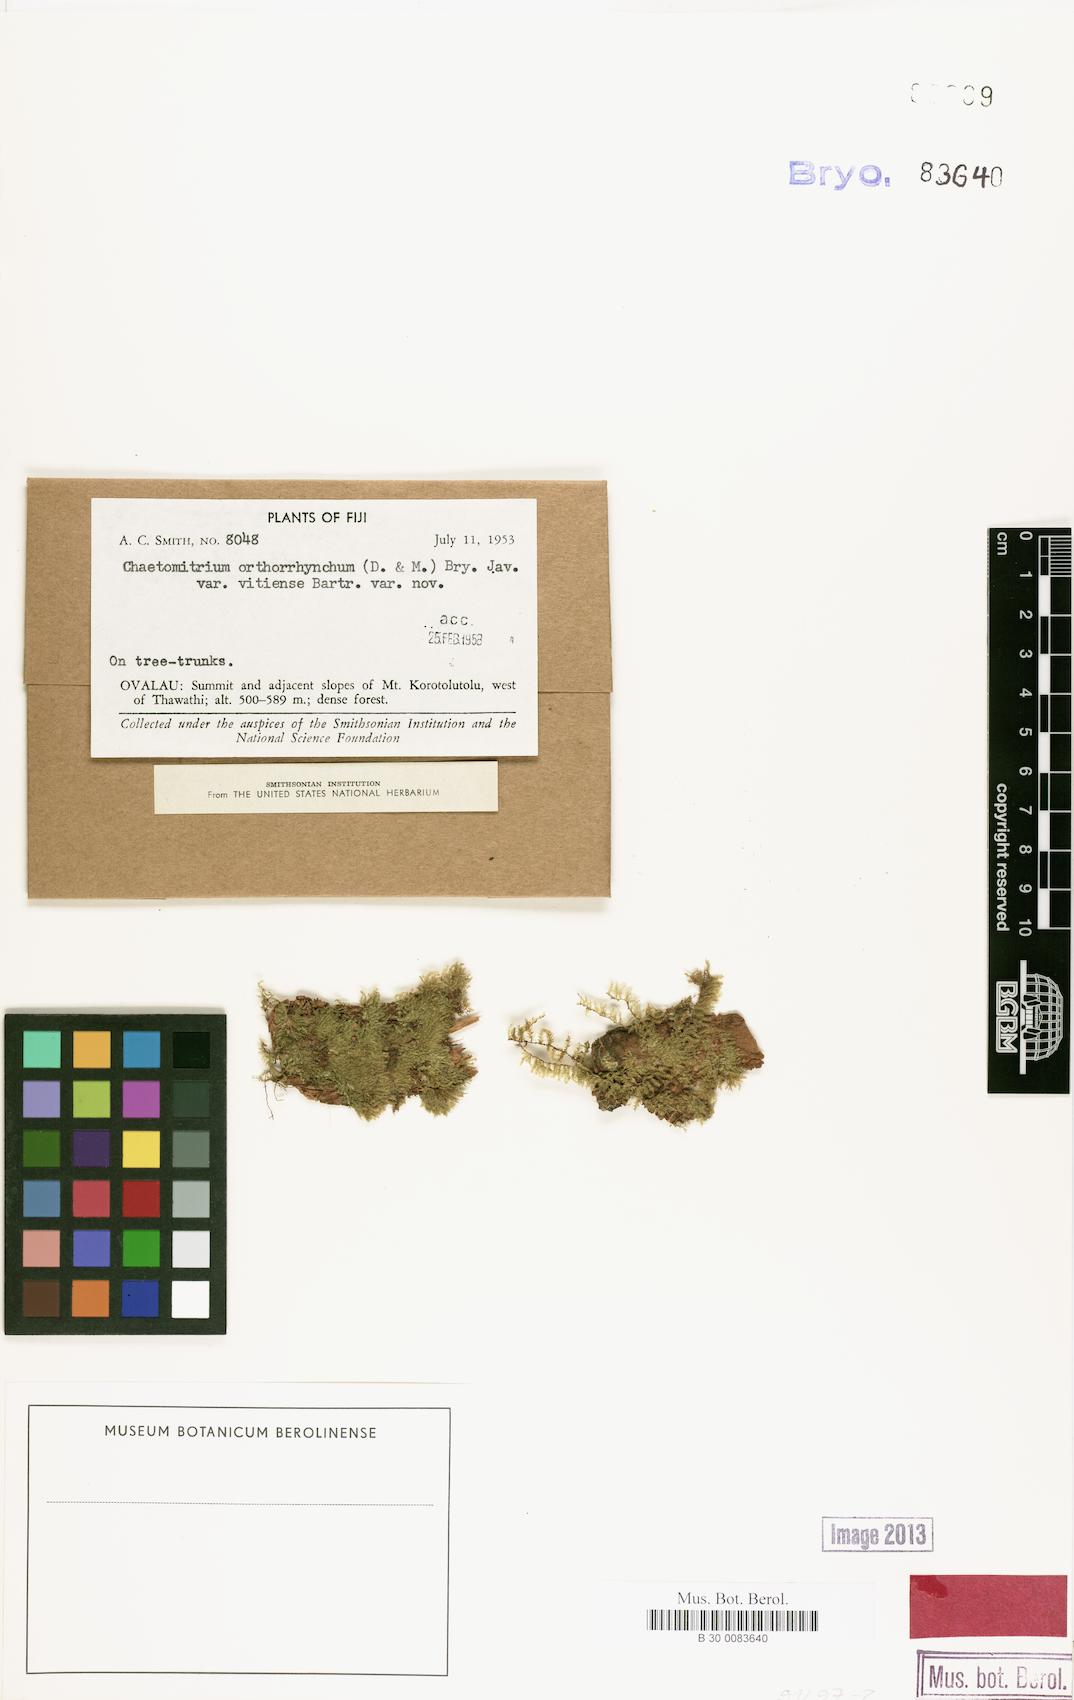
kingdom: Plantae
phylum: Bryophyta
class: Bryopsida
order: Hypnales
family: Symphyodontaceae
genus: Chaetomitrium
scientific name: Chaetomitrium orthorrhynchum
